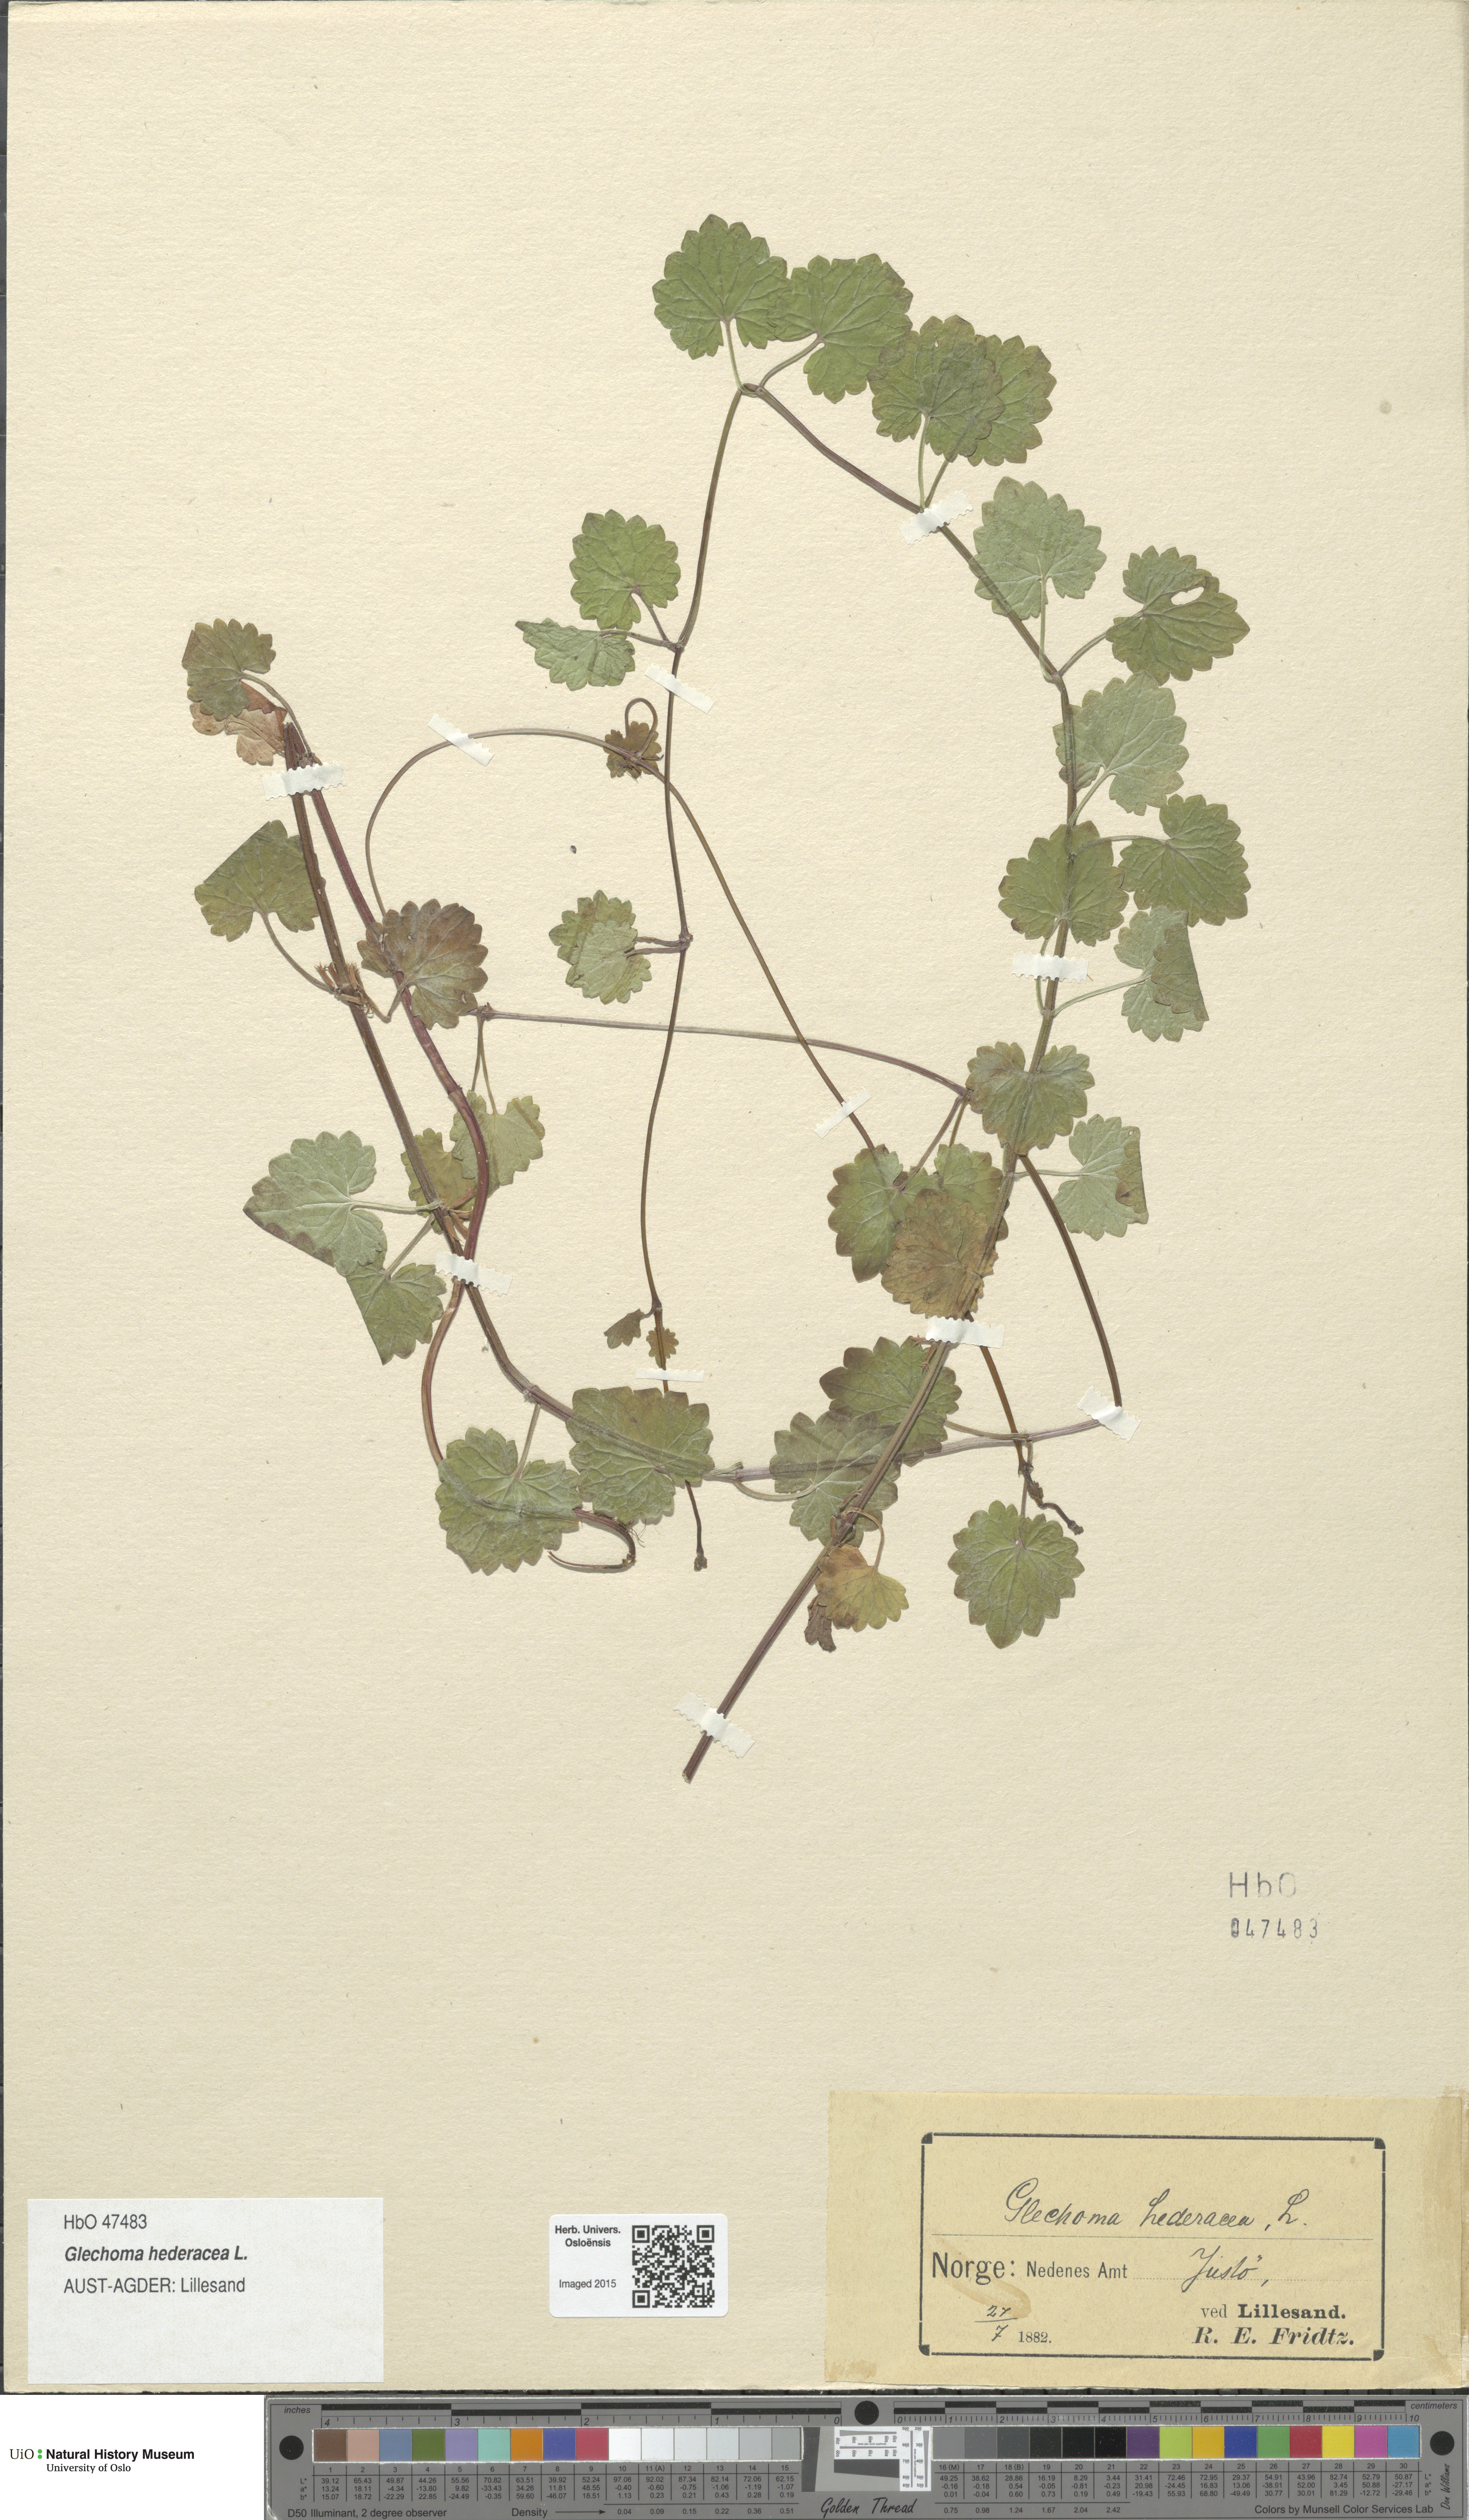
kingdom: Plantae
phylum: Tracheophyta
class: Magnoliopsida
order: Lamiales
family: Lamiaceae
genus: Glechoma
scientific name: Glechoma hederacea
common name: Ground ivy
